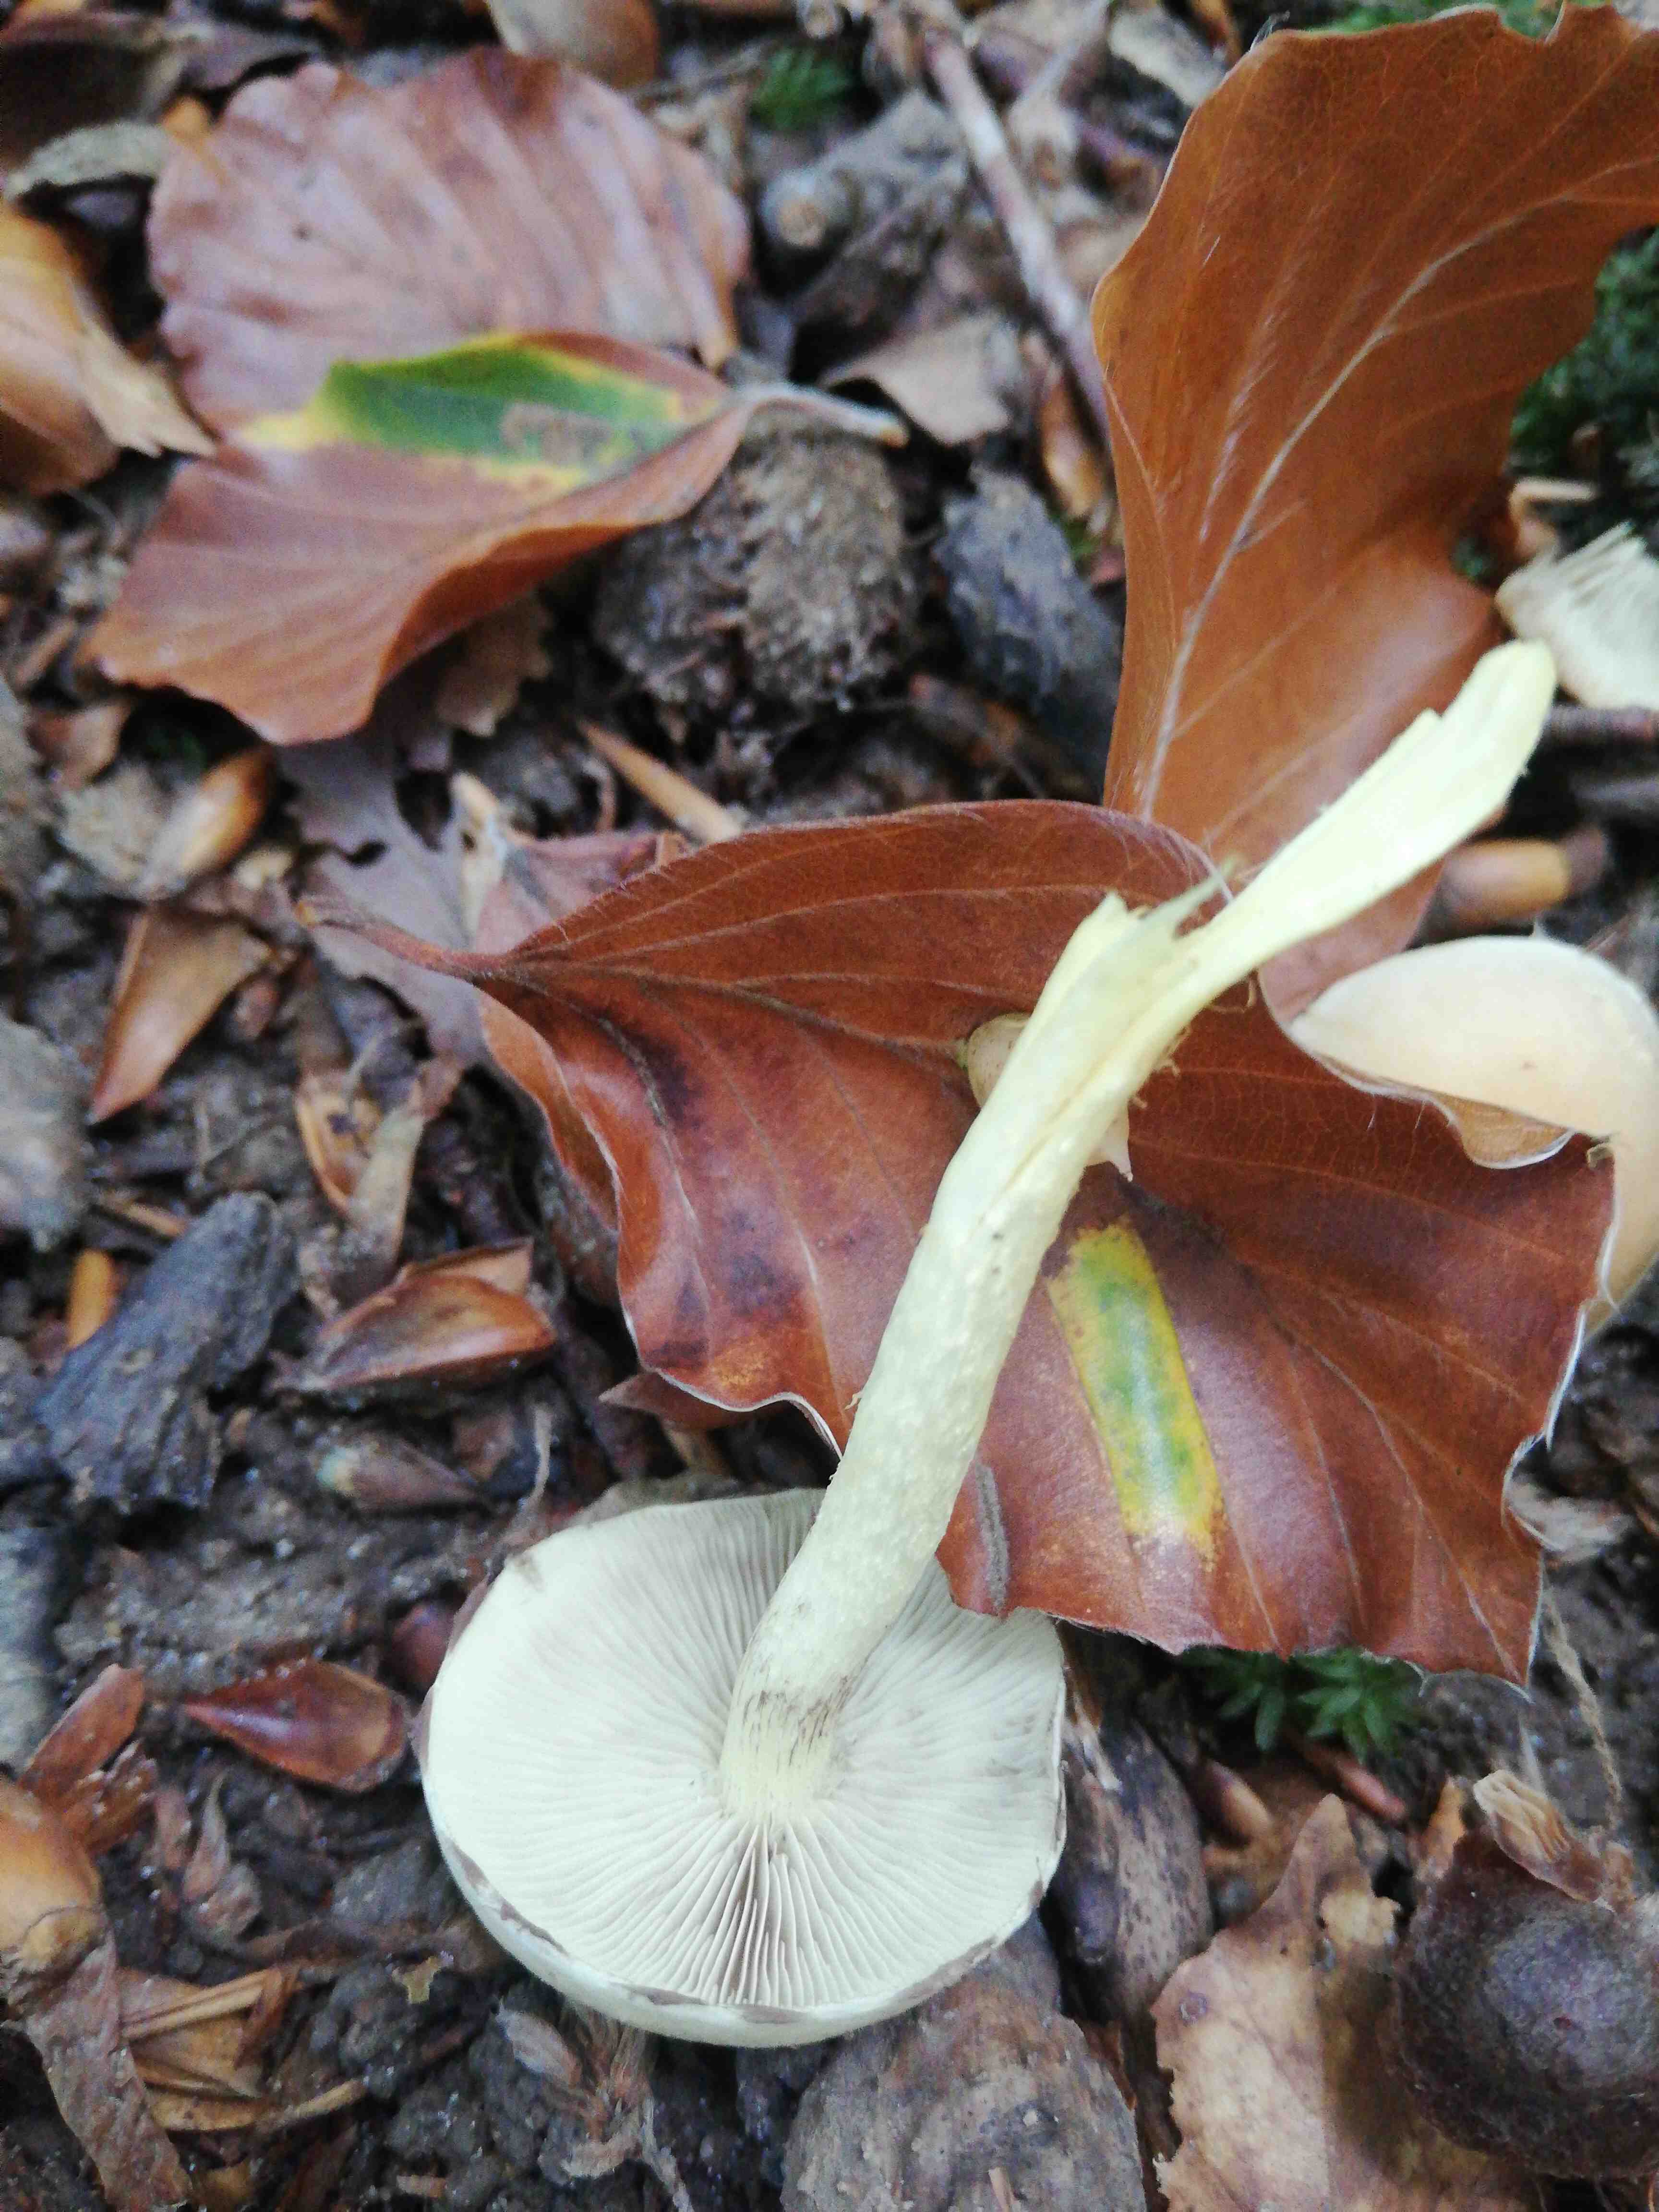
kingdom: Fungi
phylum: Basidiomycota
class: Agaricomycetes
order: Agaricales
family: Strophariaceae
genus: Hypholoma
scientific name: Hypholoma fasciculare
